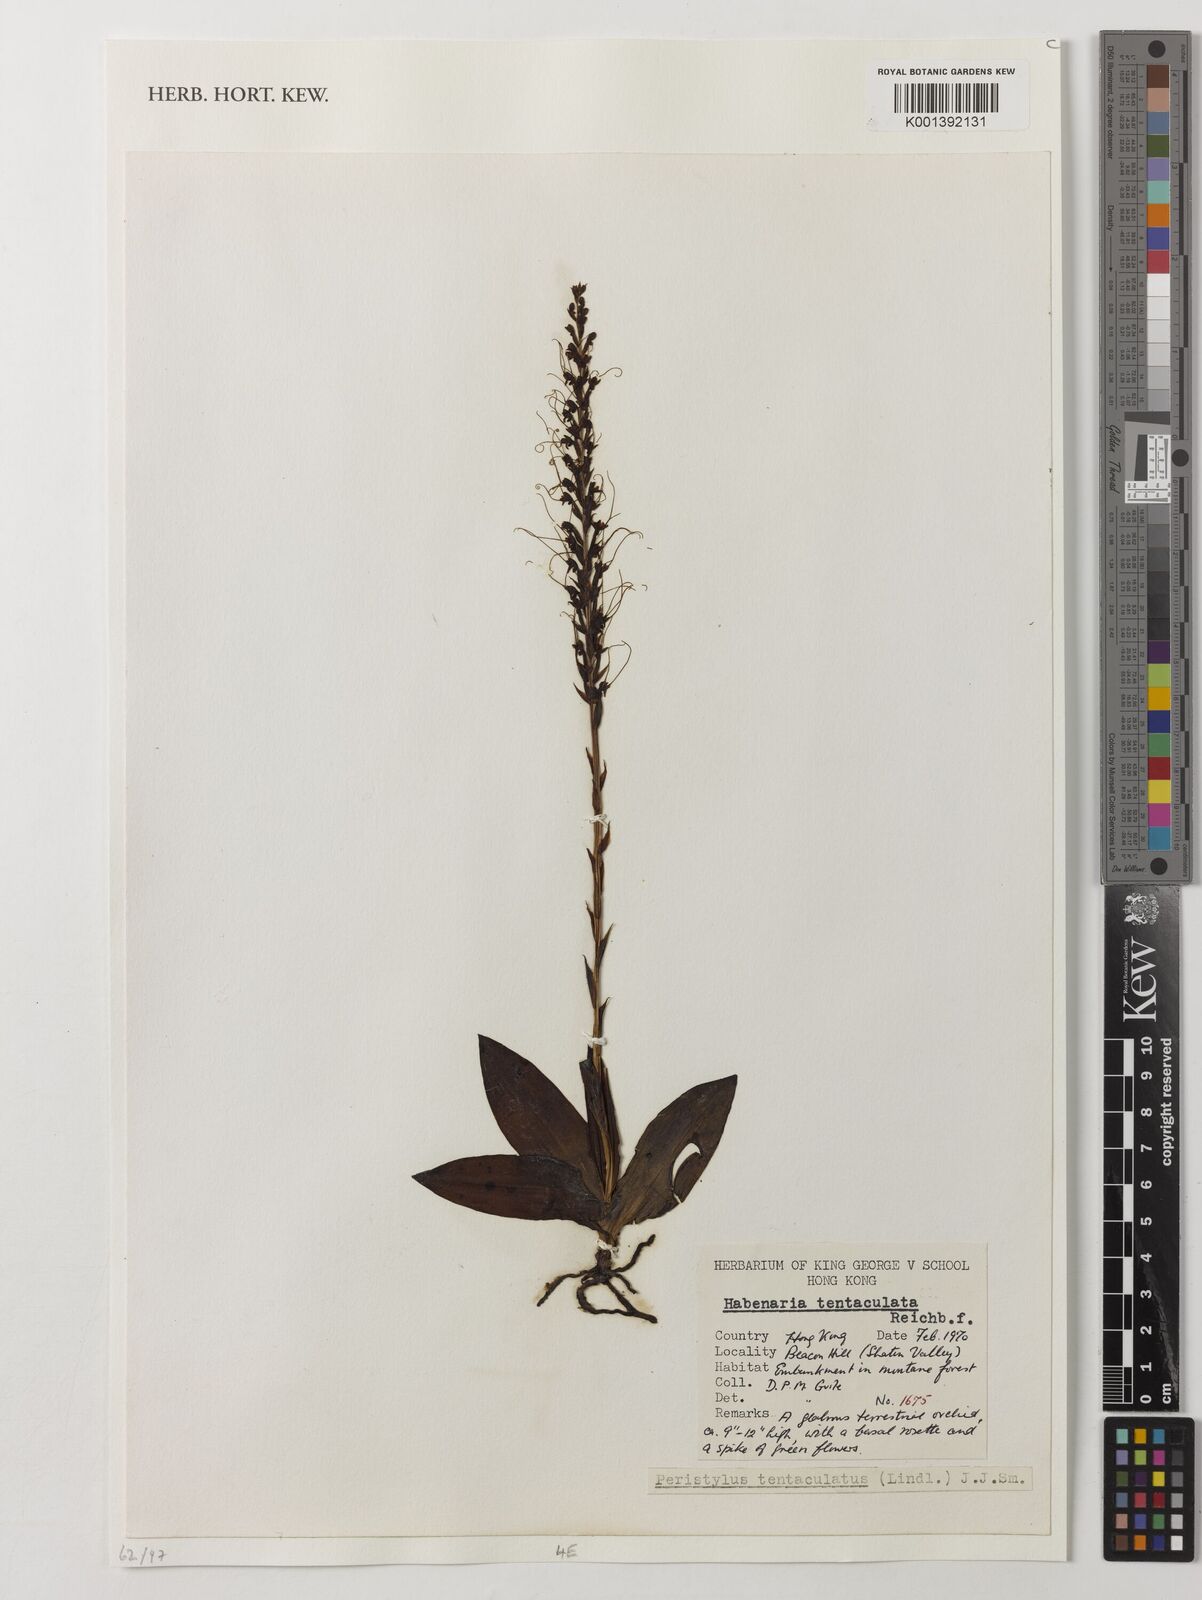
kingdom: Plantae
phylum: Tracheophyta
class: Liliopsida
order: Asparagales
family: Orchidaceae
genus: Peristylus
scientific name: Peristylus tentaculatus
